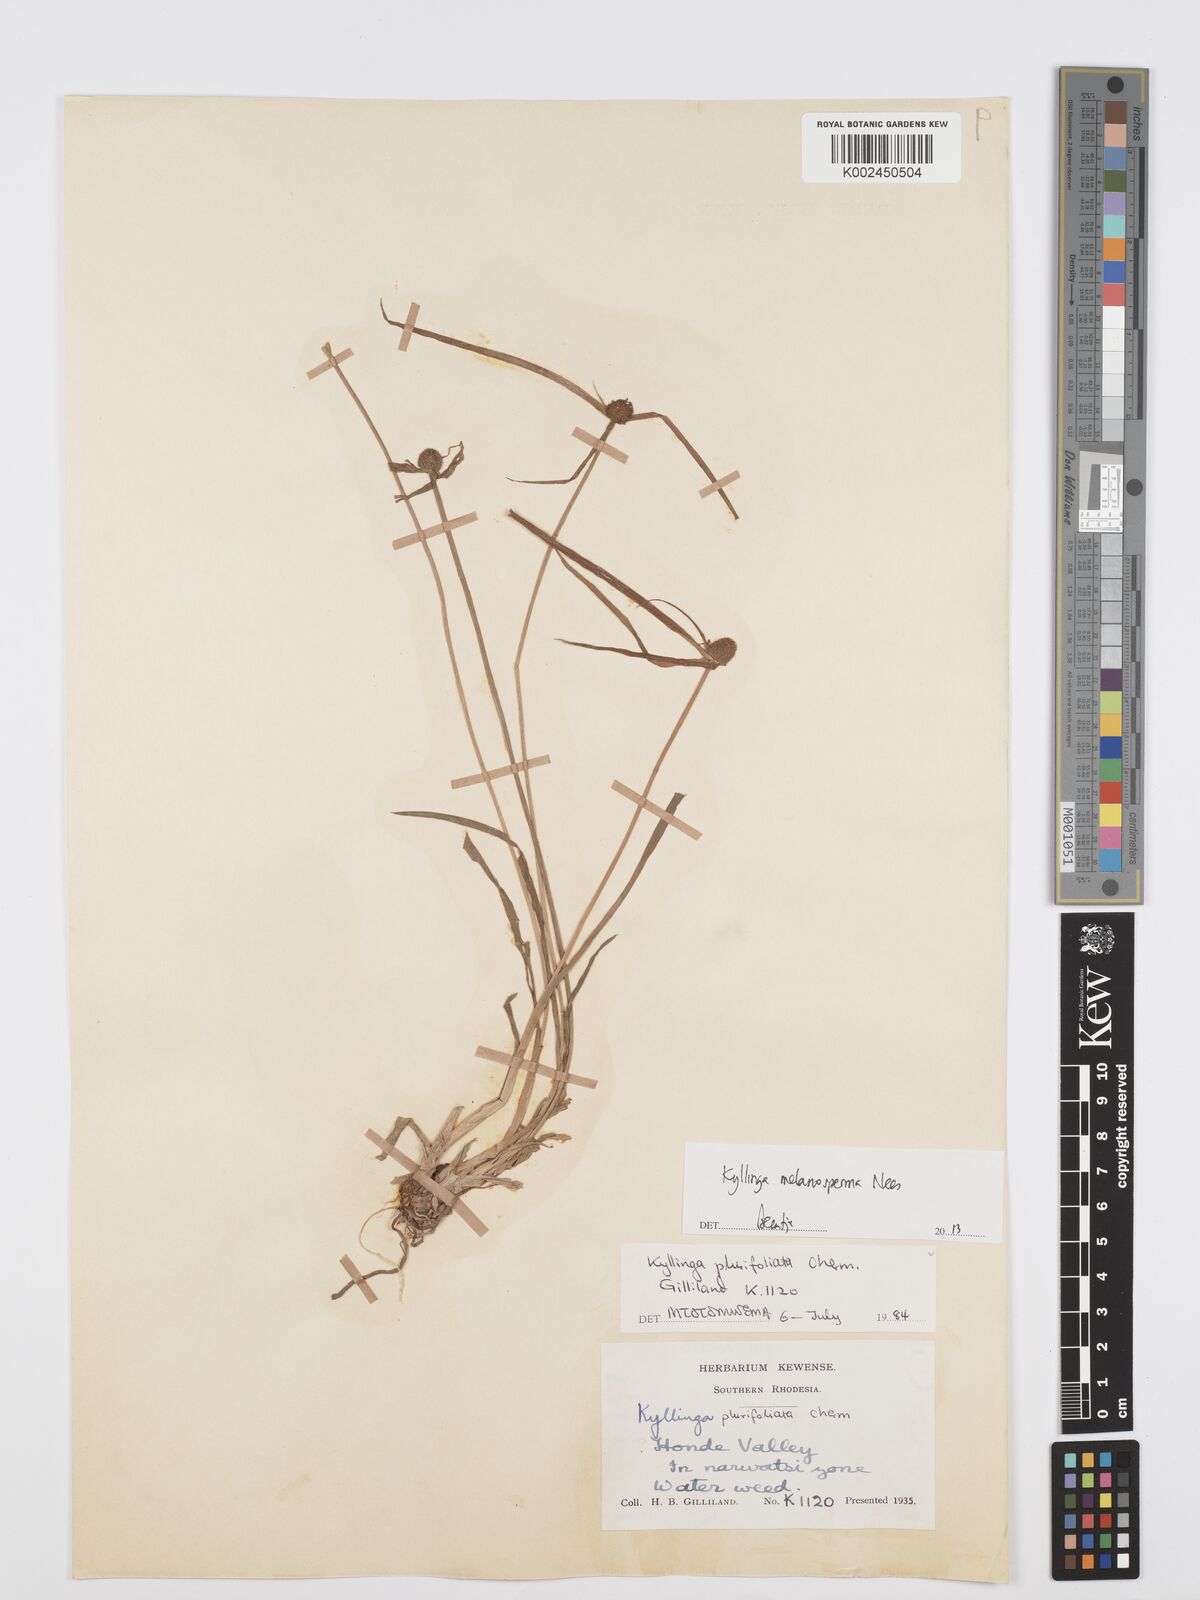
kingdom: Plantae
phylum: Tracheophyta
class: Liliopsida
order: Poales
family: Cyperaceae
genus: Cyperus
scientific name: Cyperus melanospermus
